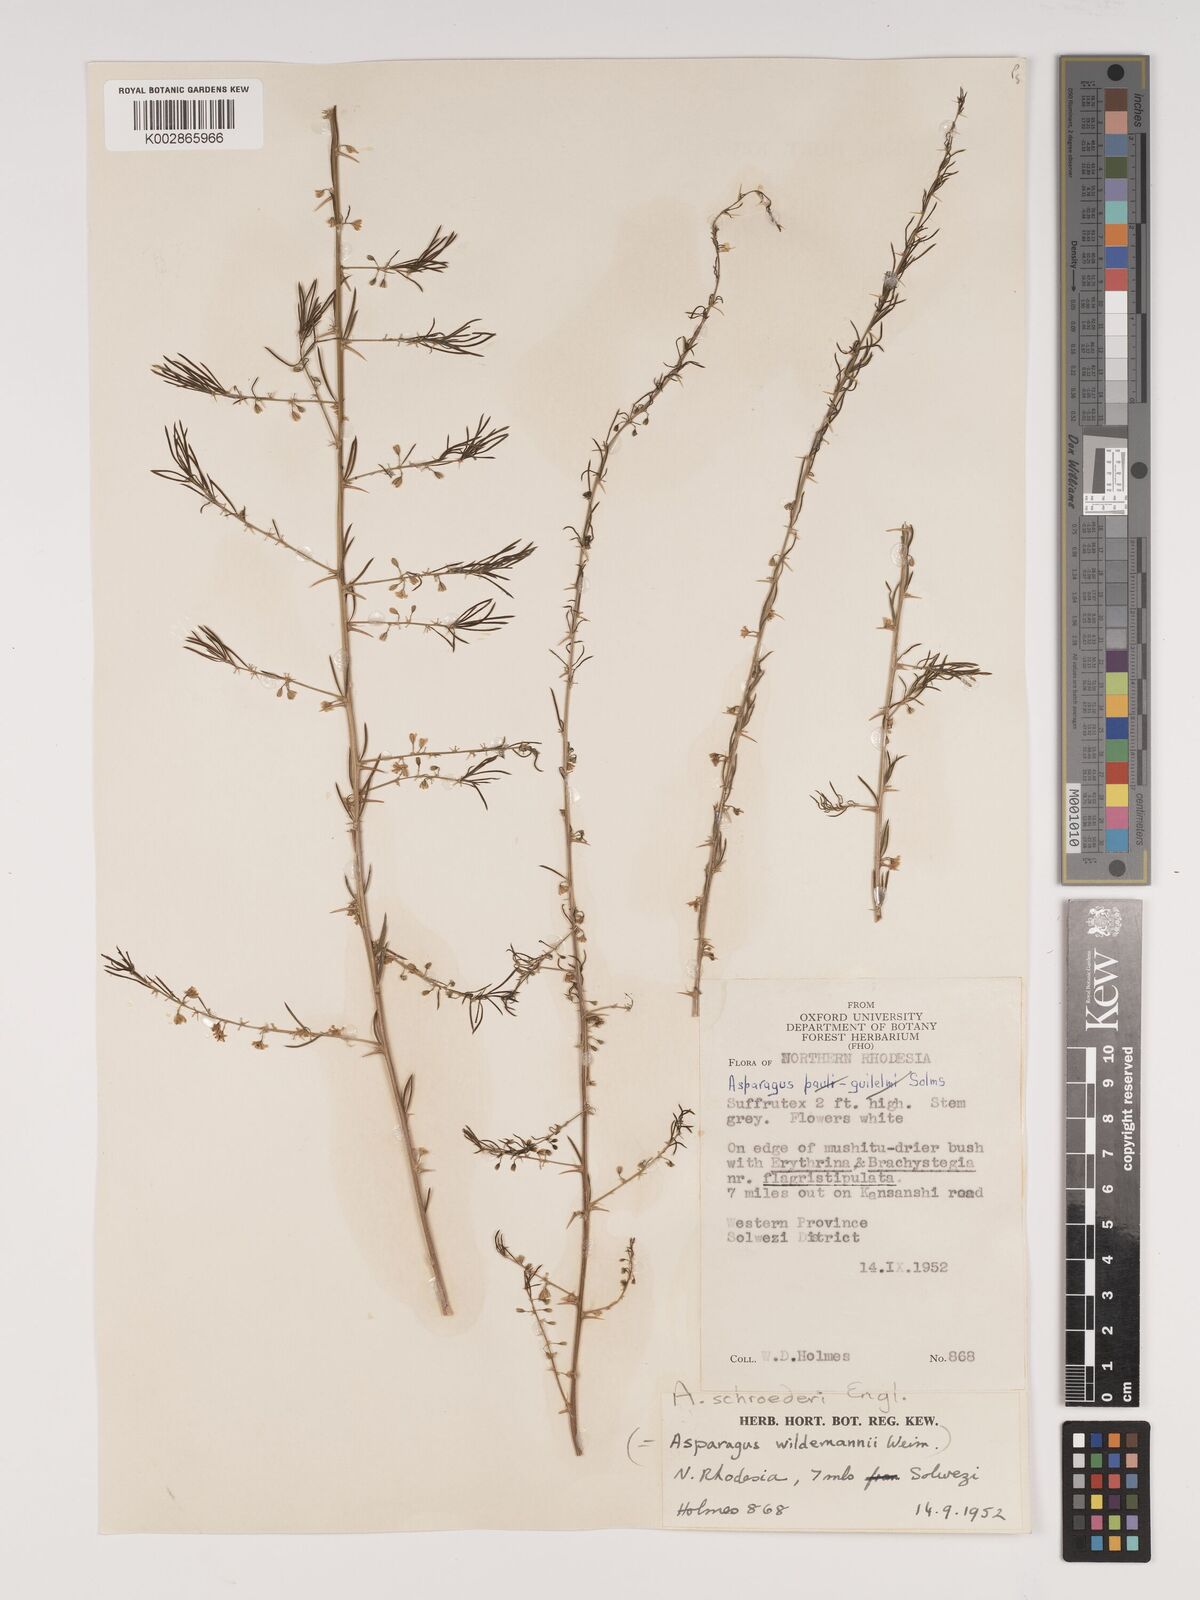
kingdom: Plantae
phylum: Tracheophyta
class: Liliopsida
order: Asparagales
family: Asparagaceae
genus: Asparagus
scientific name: Asparagus schroederi
